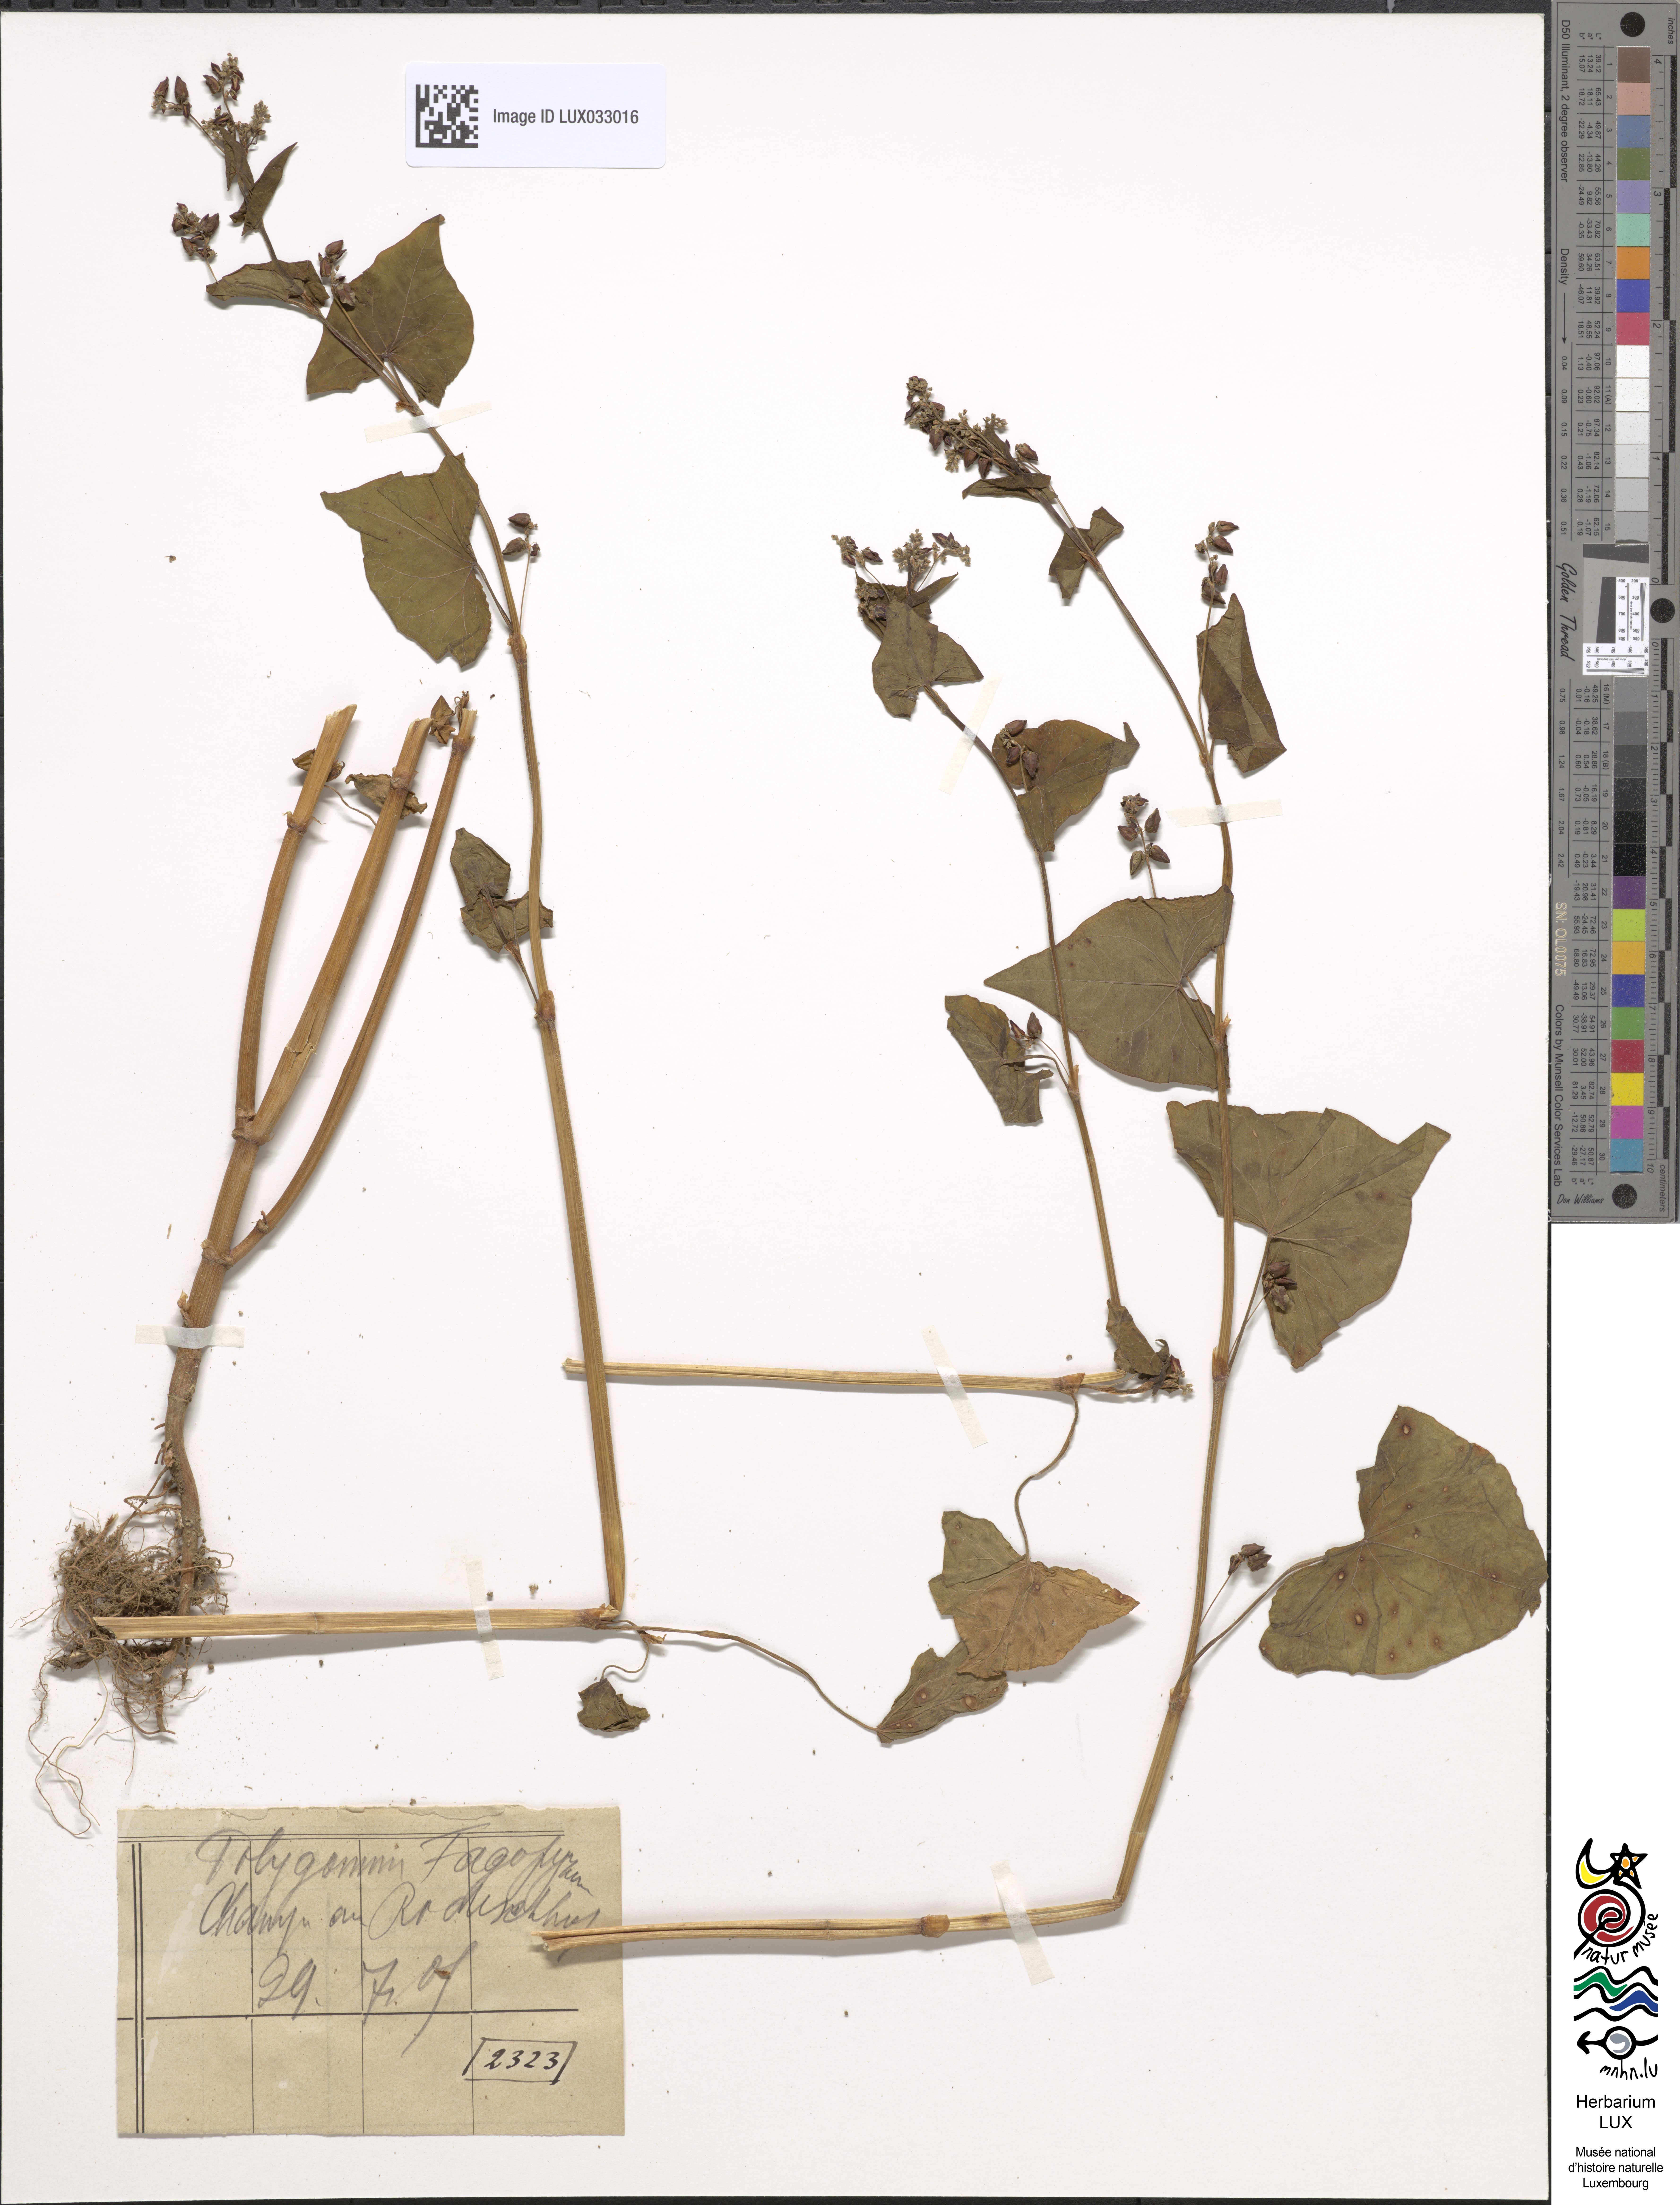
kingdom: Plantae
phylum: Tracheophyta
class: Magnoliopsida
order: Caryophyllales
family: Polygonaceae
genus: Fagopyrum
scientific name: Fagopyrum esculentum
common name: Buckwheat
